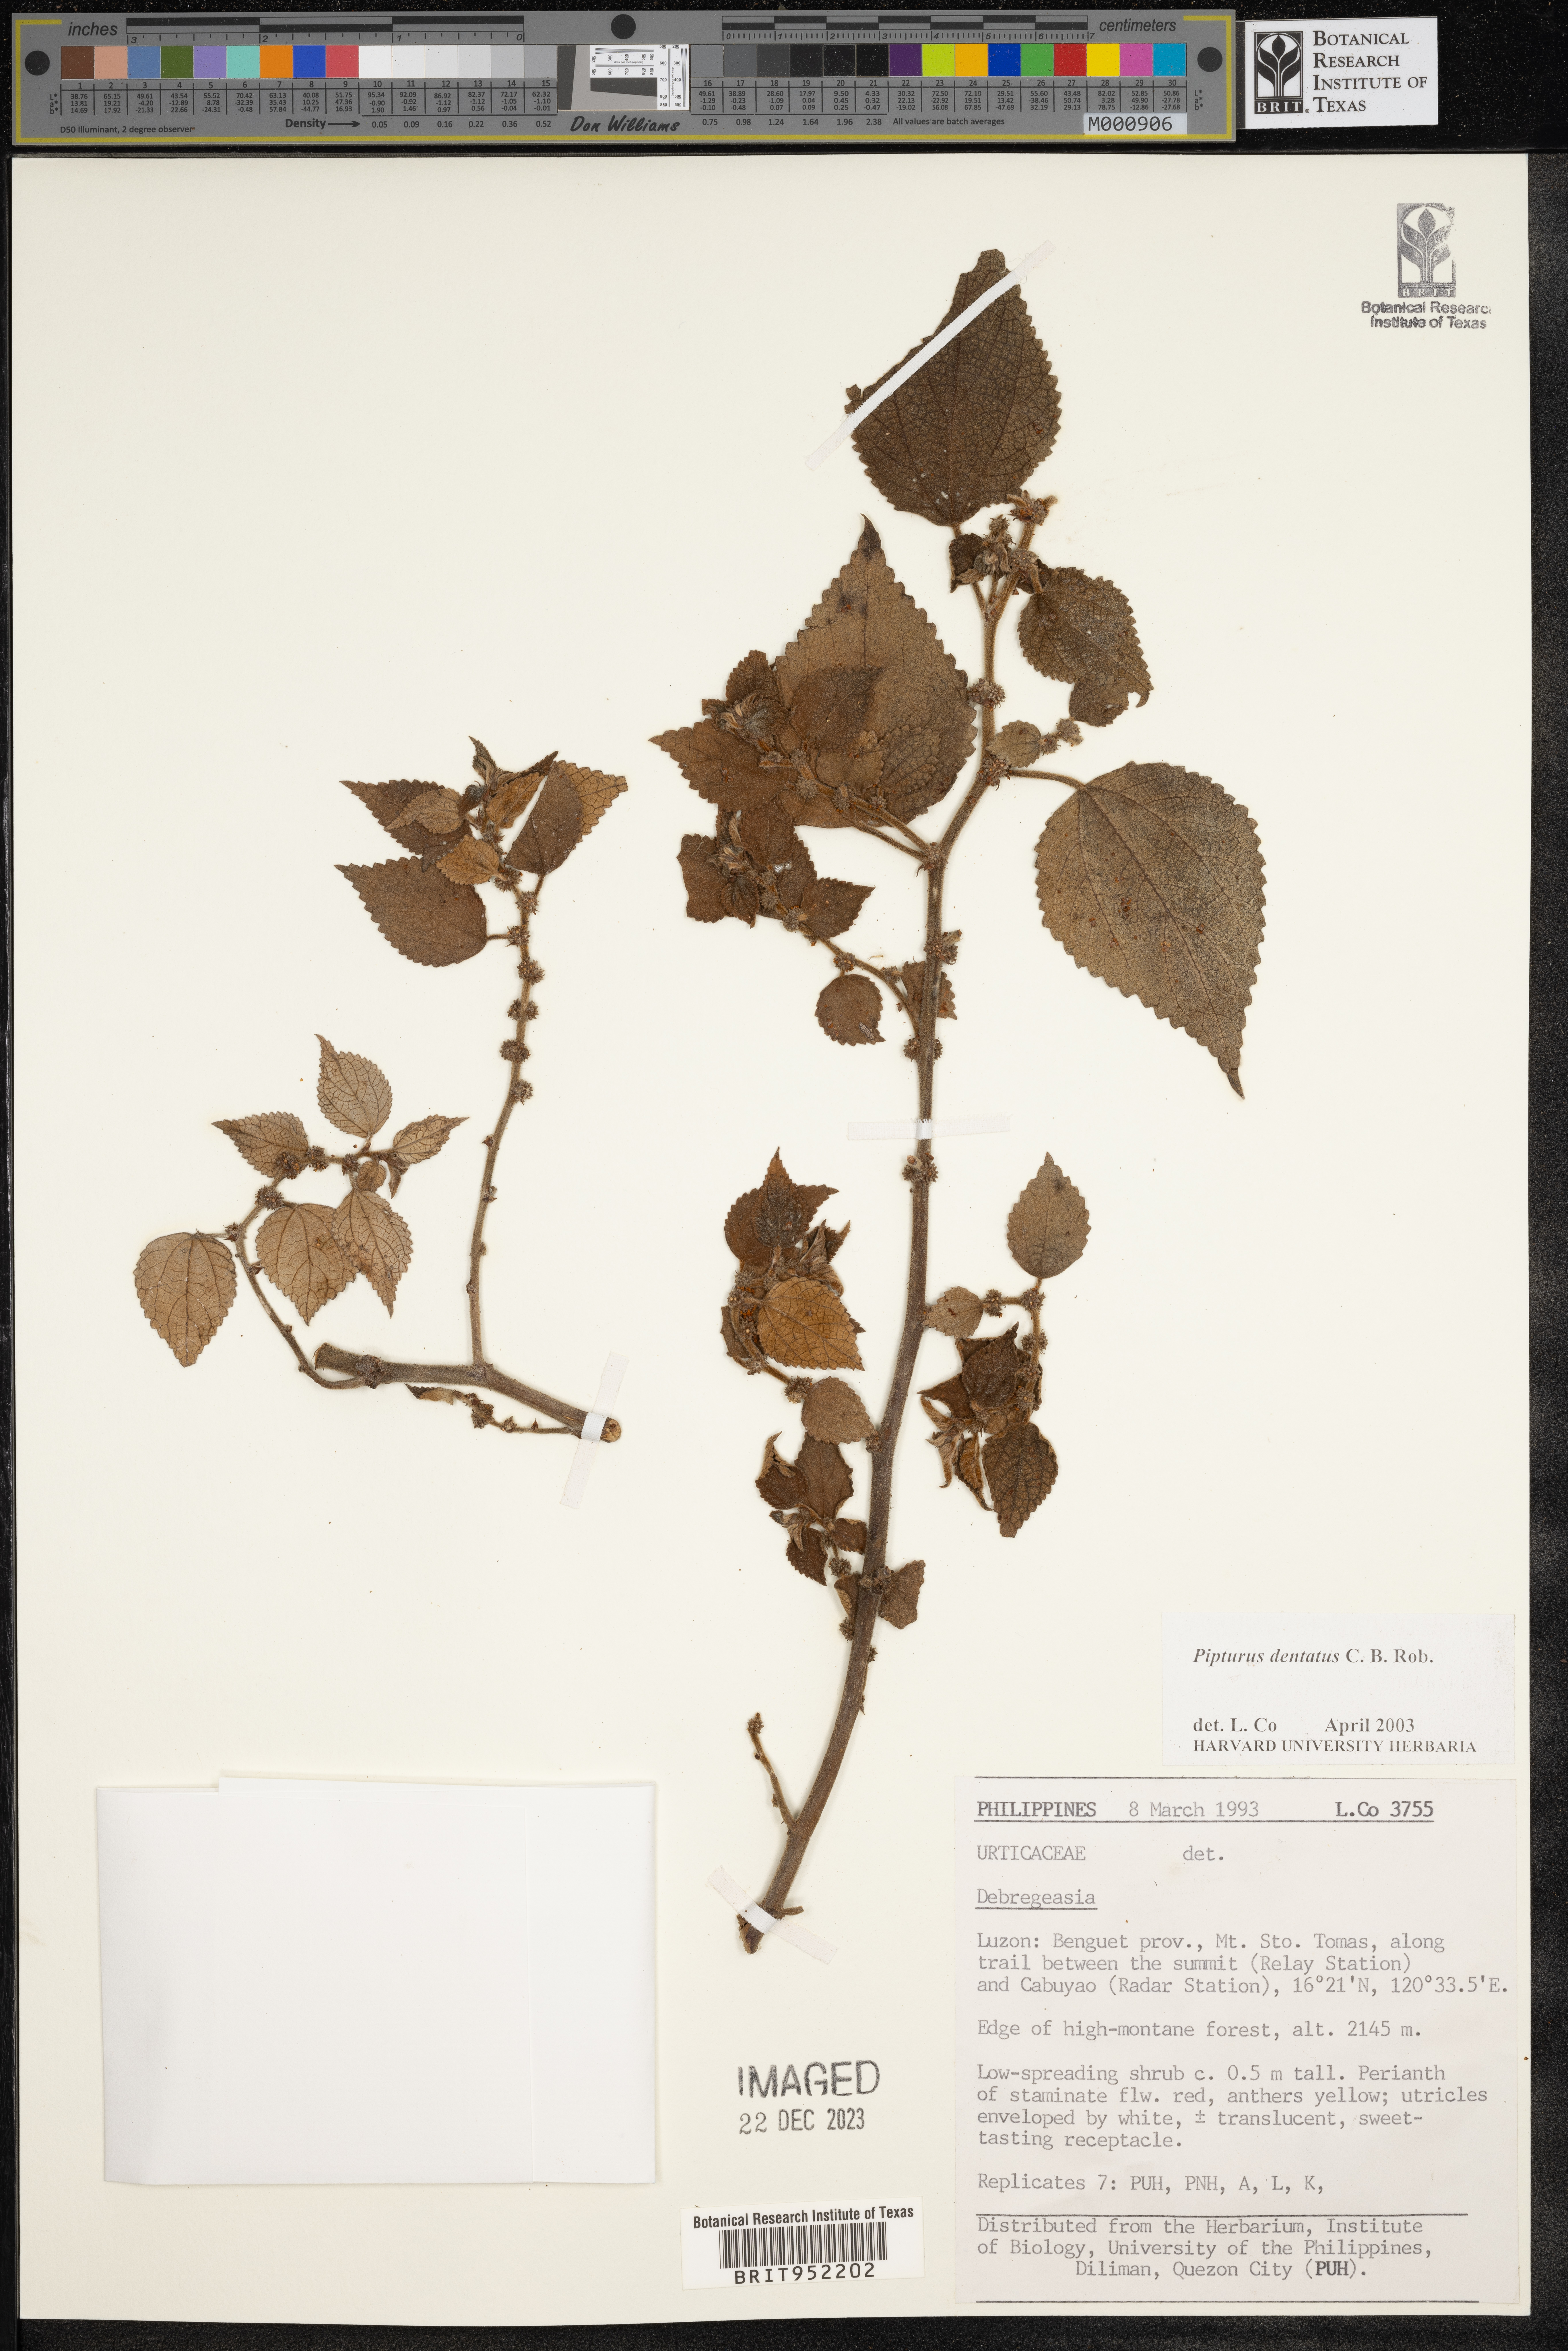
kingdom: Plantae
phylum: Tracheophyta
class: Magnoliopsida
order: Rosales
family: Urticaceae
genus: Pipturus
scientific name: Pipturus argenteus
